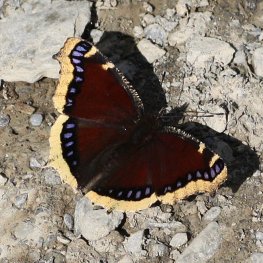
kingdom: Animalia
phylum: Arthropoda
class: Insecta
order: Lepidoptera
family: Nymphalidae
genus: Nymphalis
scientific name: Nymphalis antiopa
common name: Mourning Cloak
